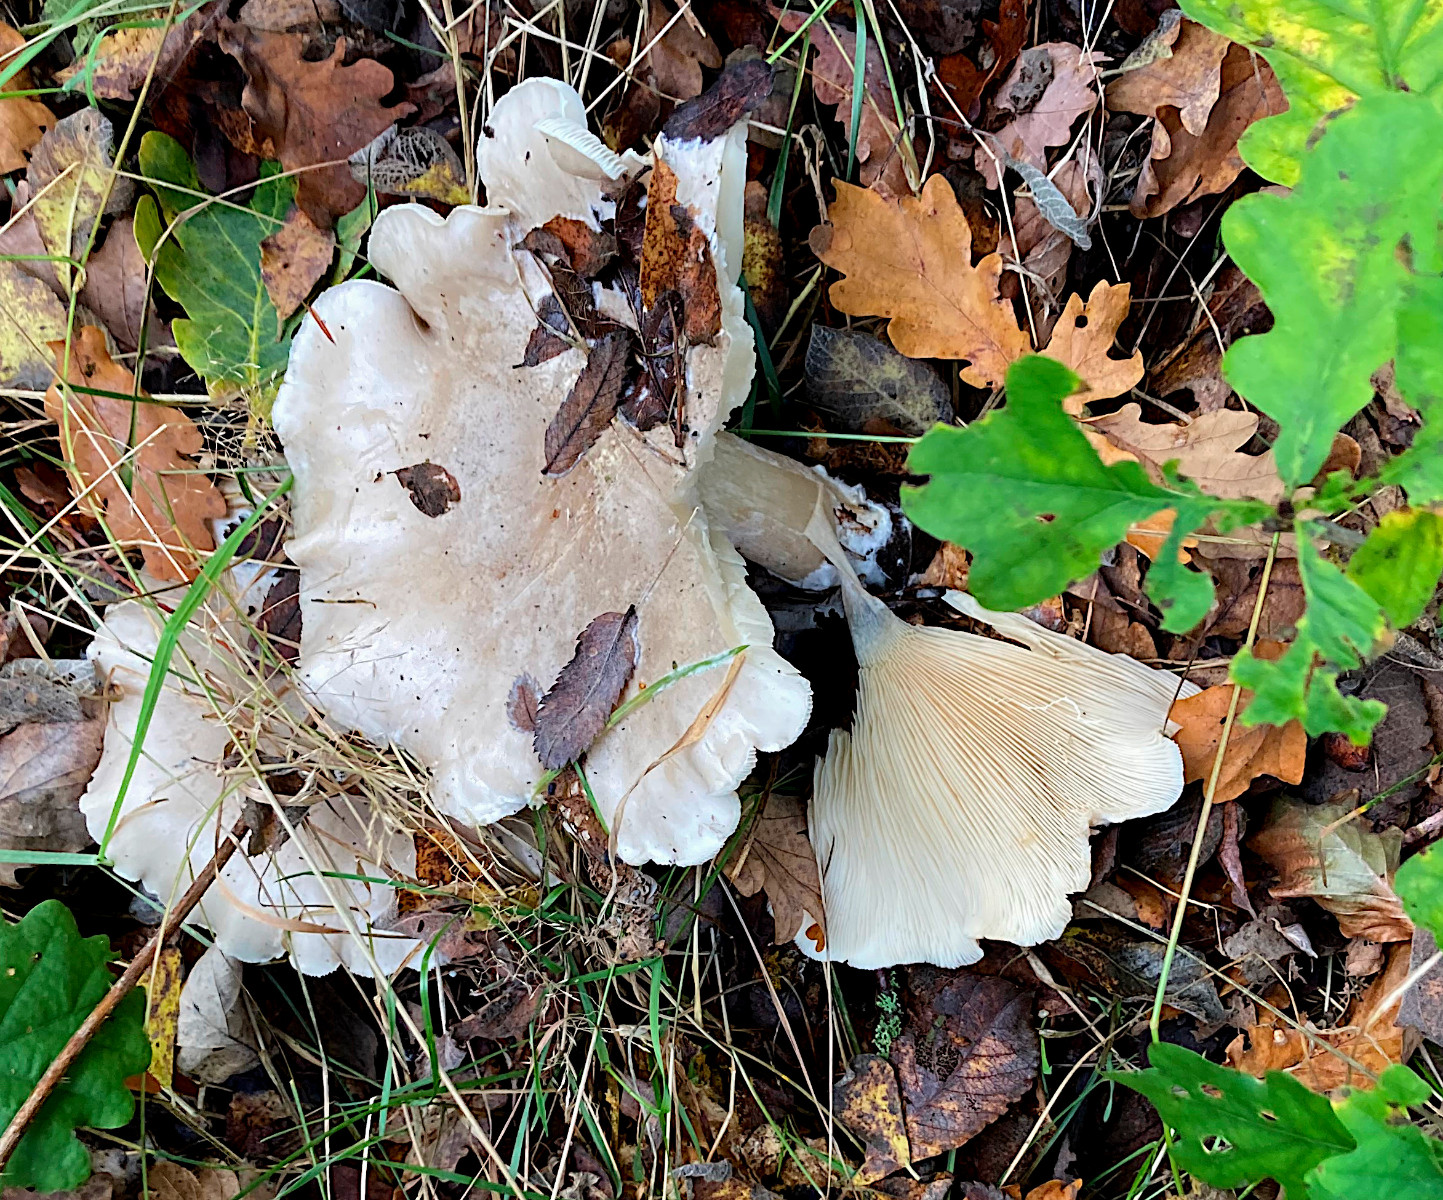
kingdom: Fungi
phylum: Basidiomycota
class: Agaricomycetes
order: Agaricales
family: Tricholomataceae
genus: Clitocybe
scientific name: Clitocybe nebularis
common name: tåge-tragthat
